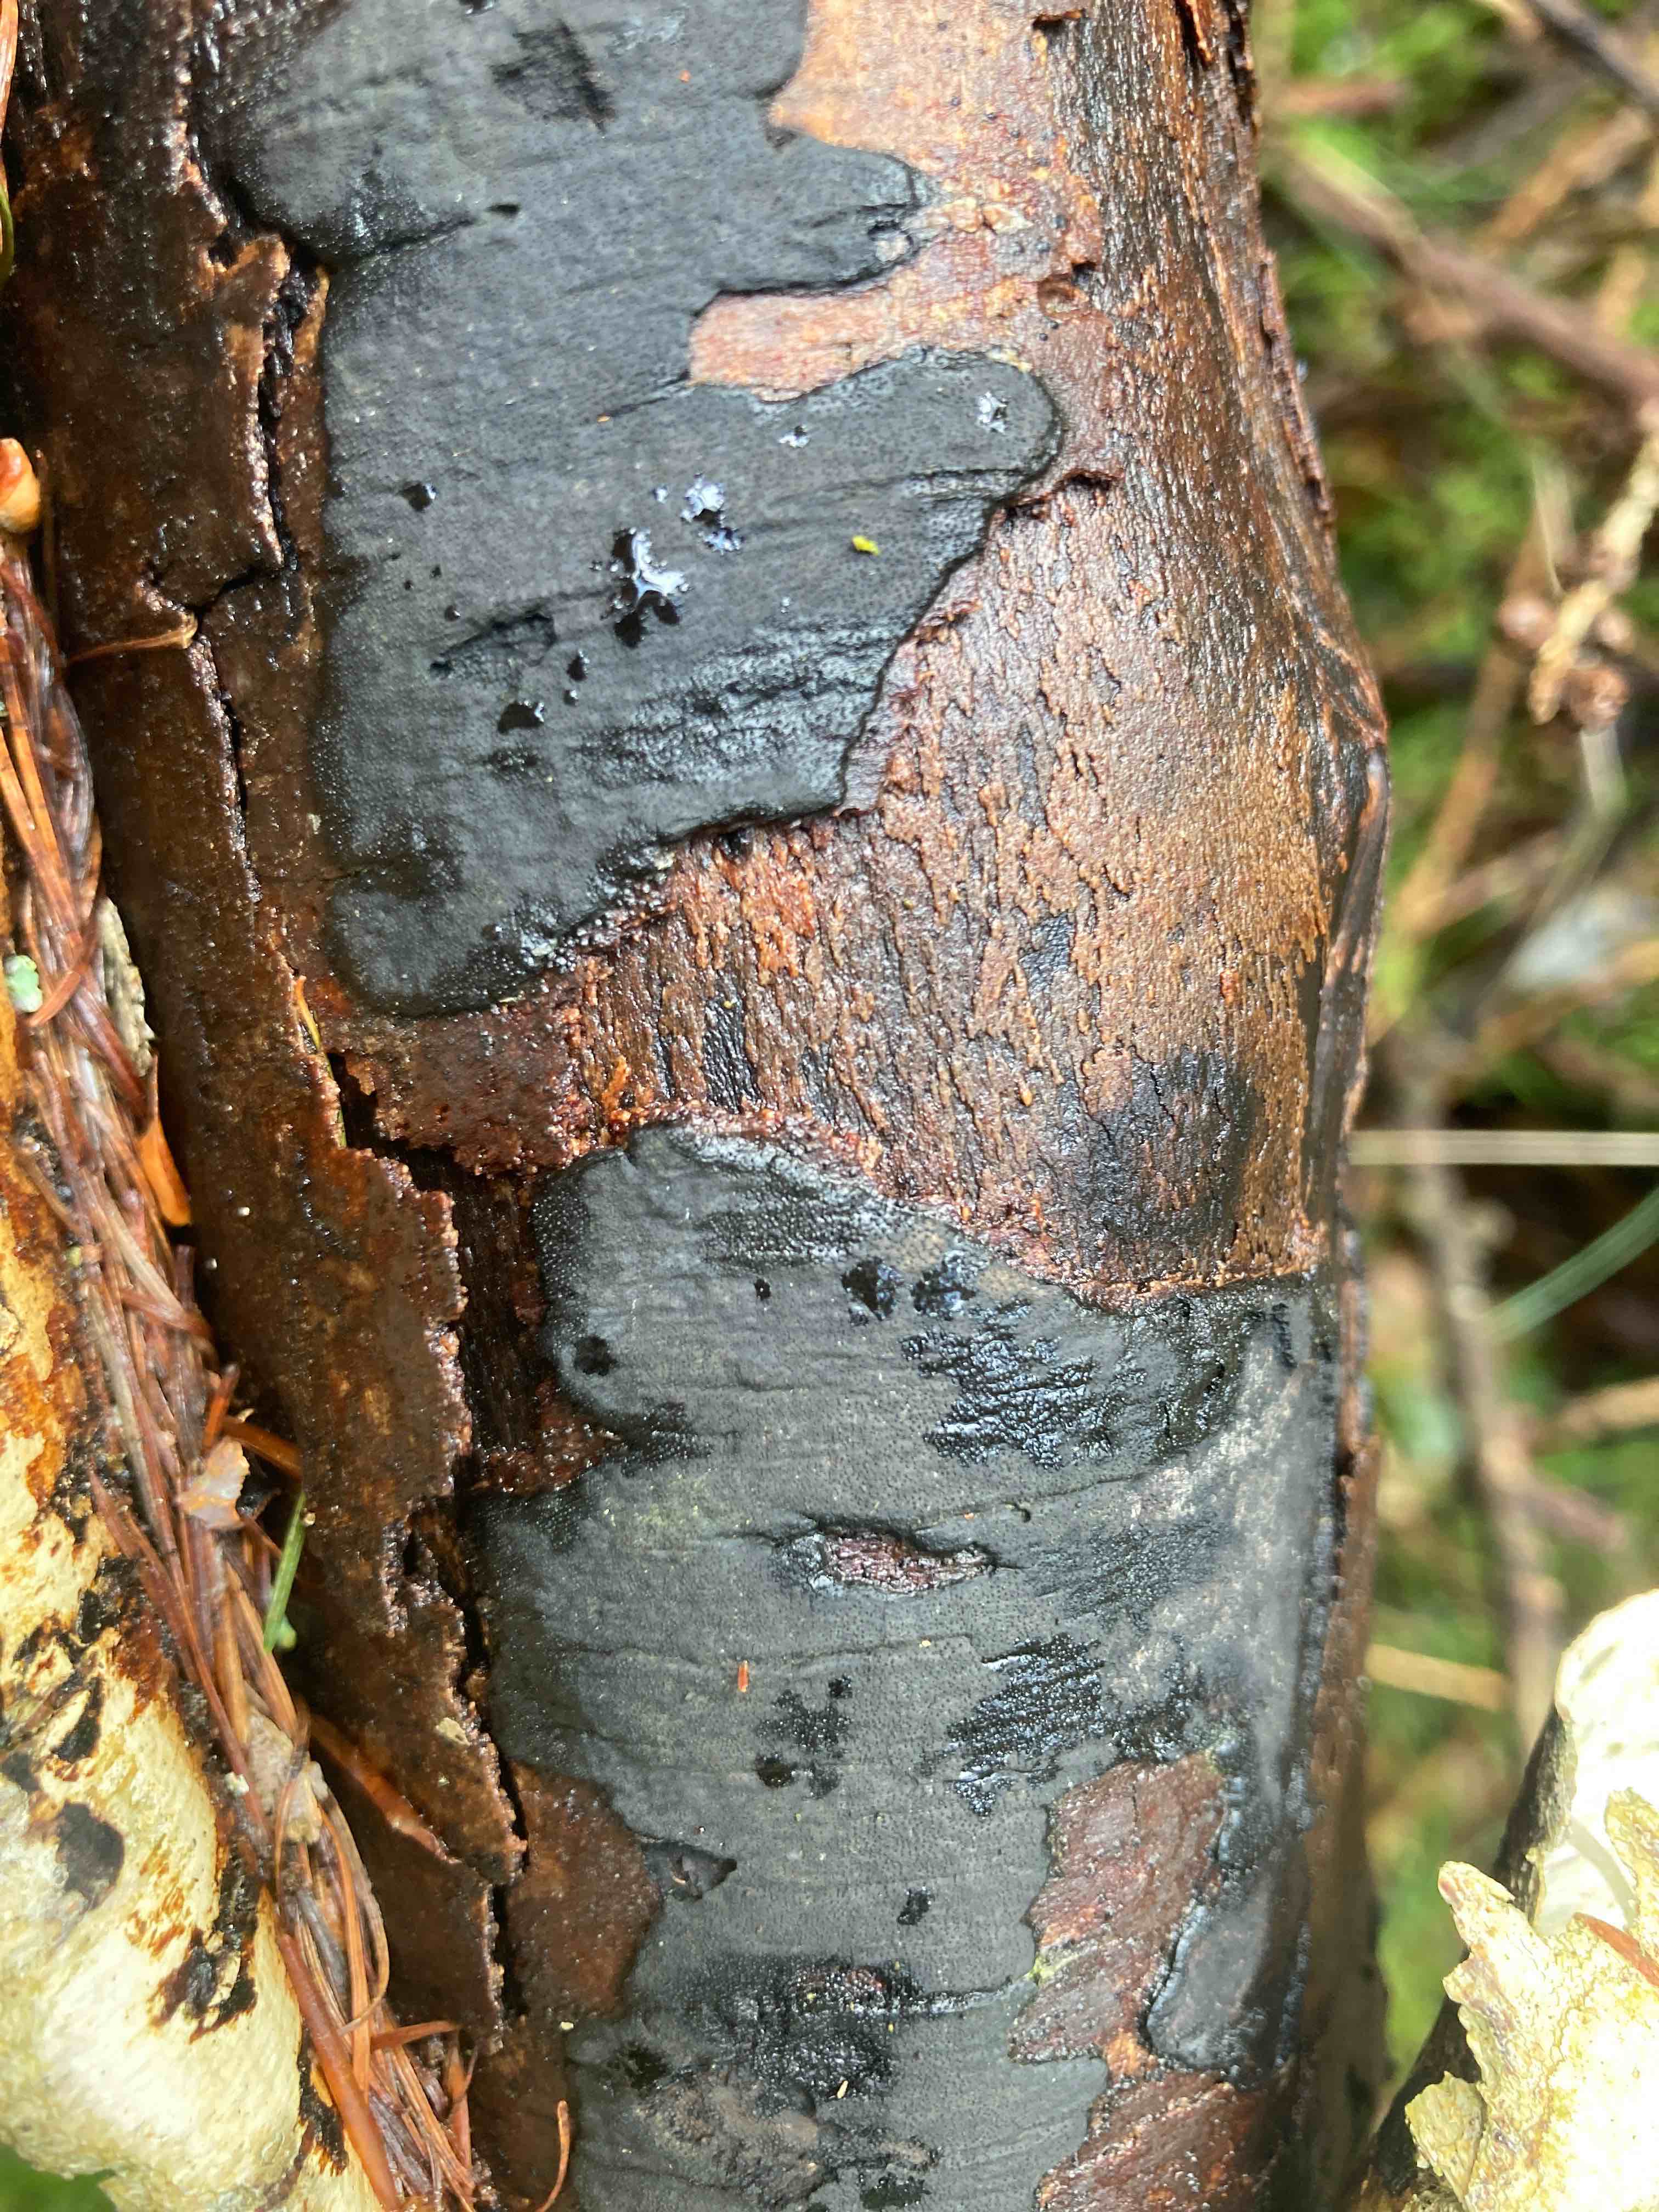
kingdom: Fungi
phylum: Ascomycota
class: Sordariomycetes
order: Xylariales
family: Diatrypaceae
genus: Diatrype
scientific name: Diatrype
